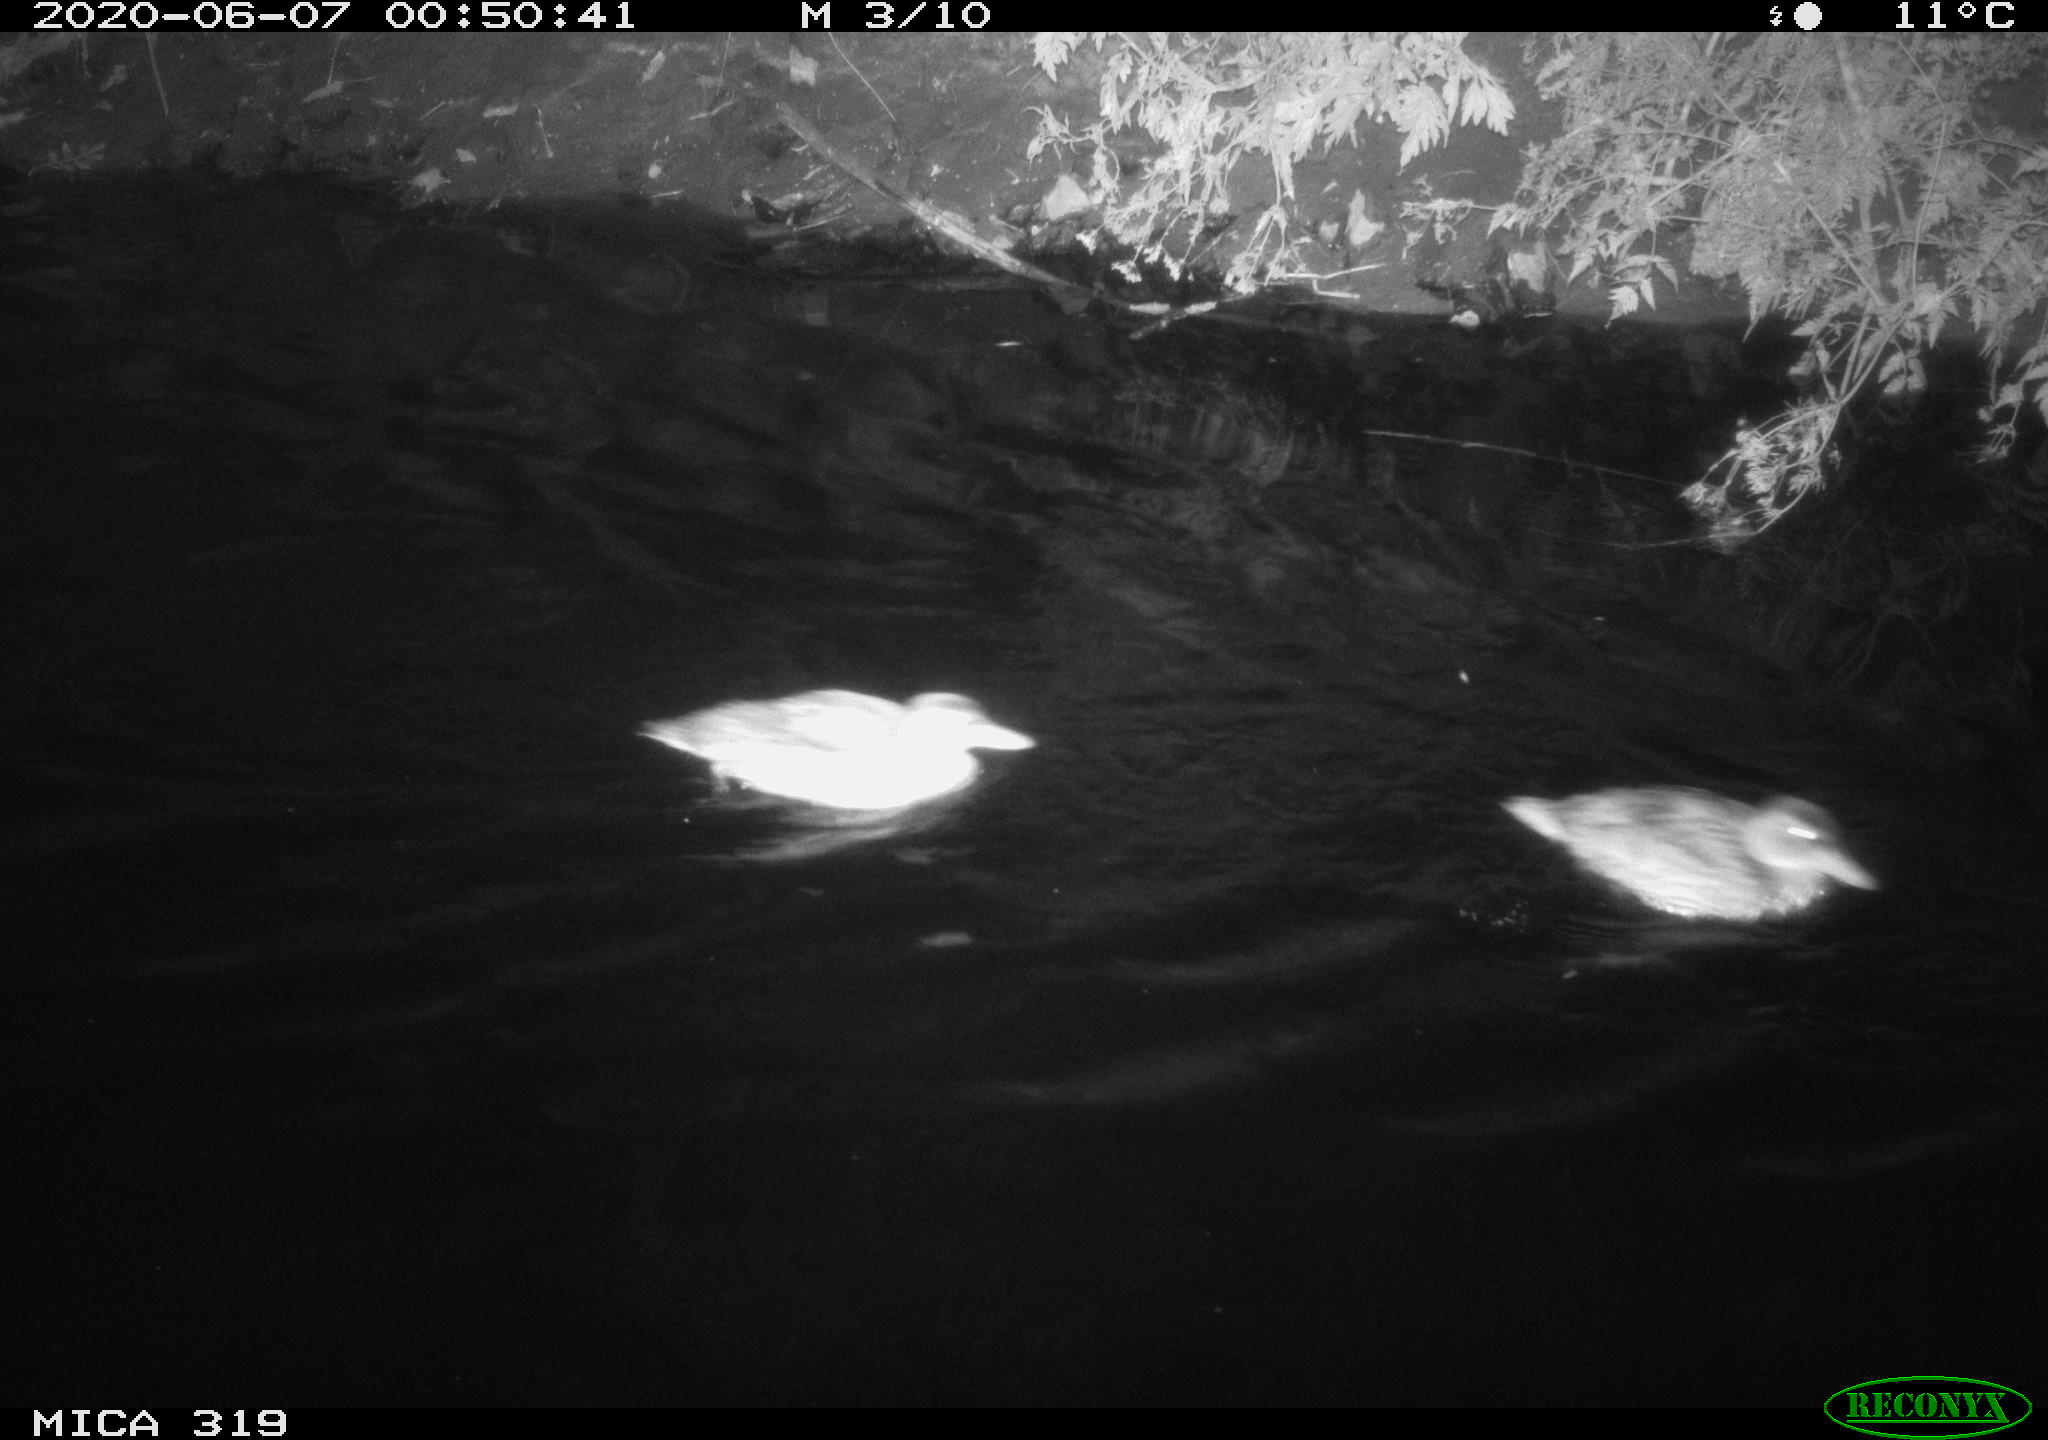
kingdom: Animalia
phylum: Chordata
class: Aves
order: Anseriformes
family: Anatidae
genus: Anas
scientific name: Anas platyrhynchos
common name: Mallard
